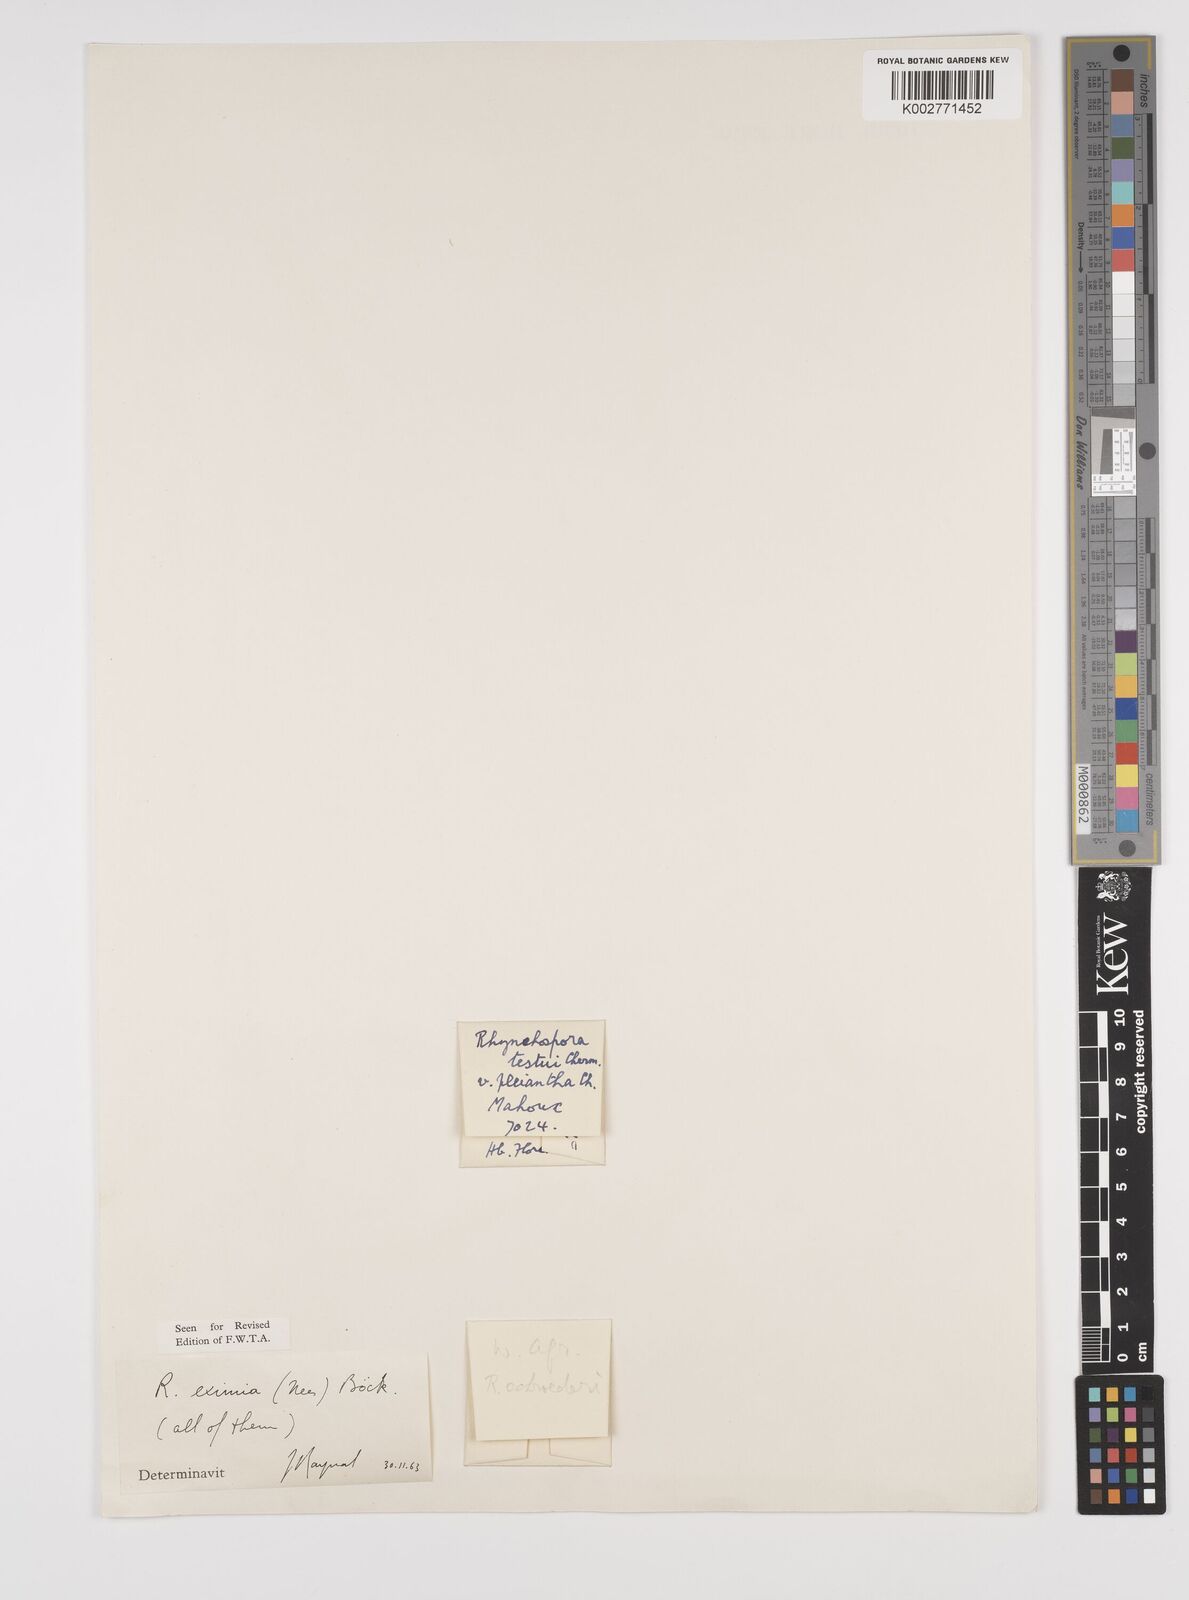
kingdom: Plantae
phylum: Tracheophyta
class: Liliopsida
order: Poales
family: Cyperaceae
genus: Rhynchospora
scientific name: Rhynchospora eximia
